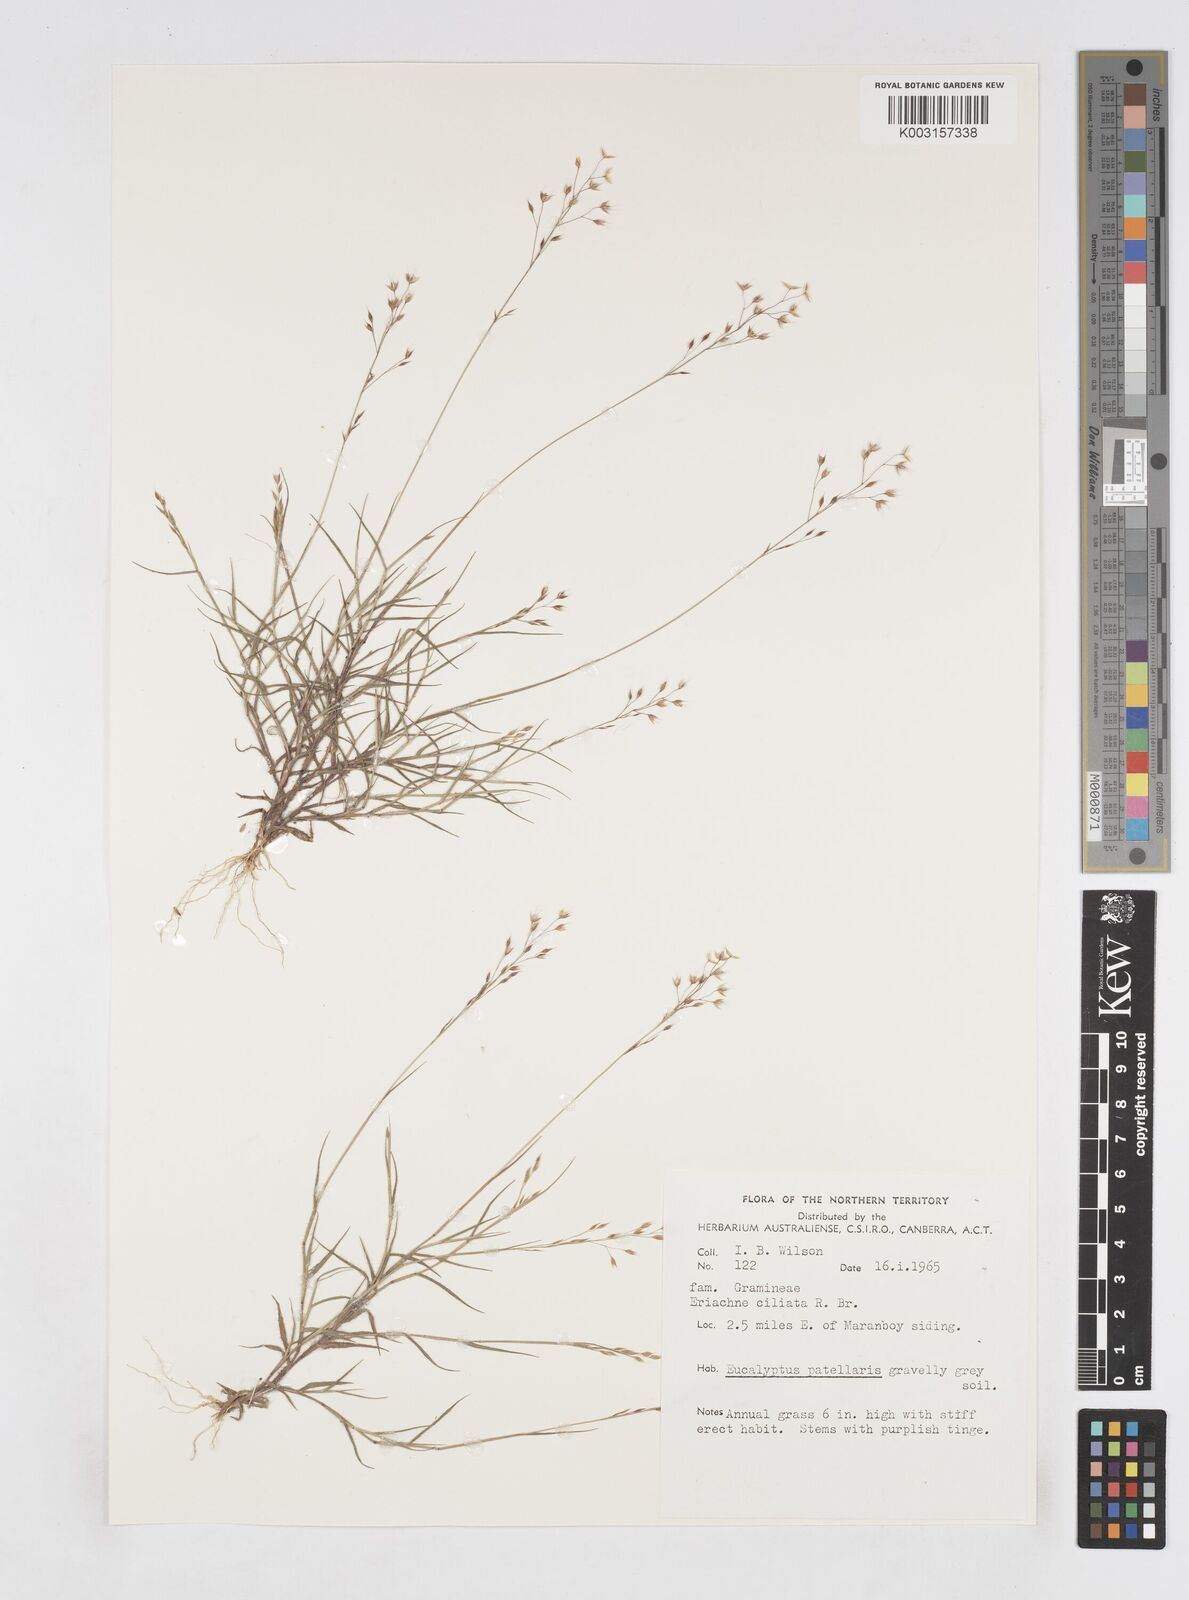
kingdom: Plantae
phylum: Tracheophyta
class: Liliopsida
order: Poales
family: Poaceae
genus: Eriachne
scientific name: Eriachne ciliata
